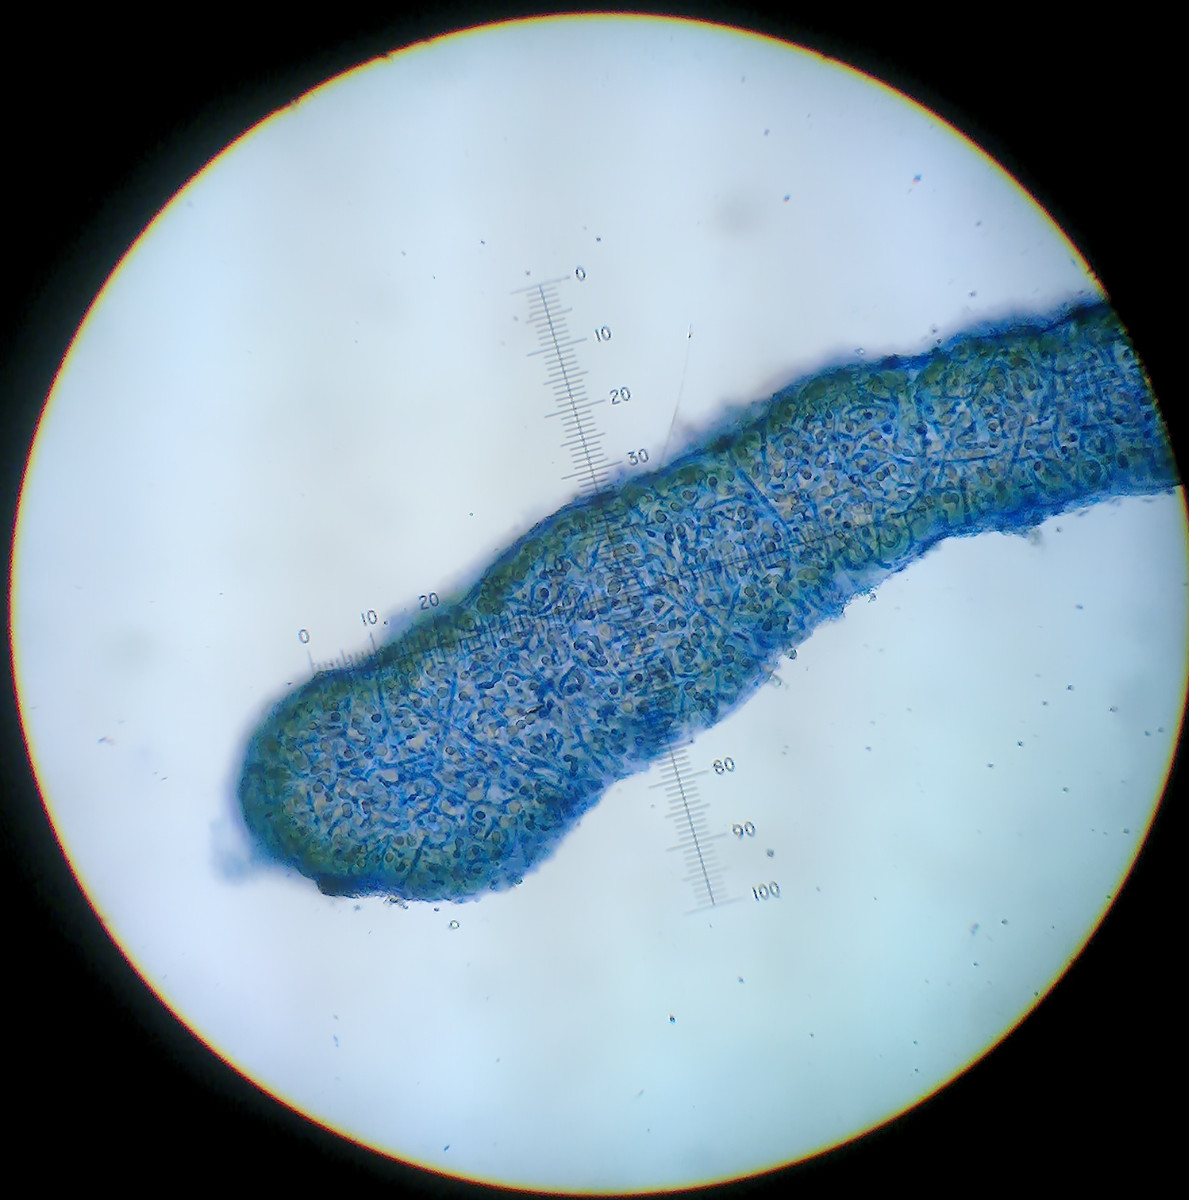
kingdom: Fungi
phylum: Ascomycota
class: Lecanoromycetes
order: Peltigerales
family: Collemataceae
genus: Blennothallia
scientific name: Blennothallia crispa
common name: kruset bævrelav
